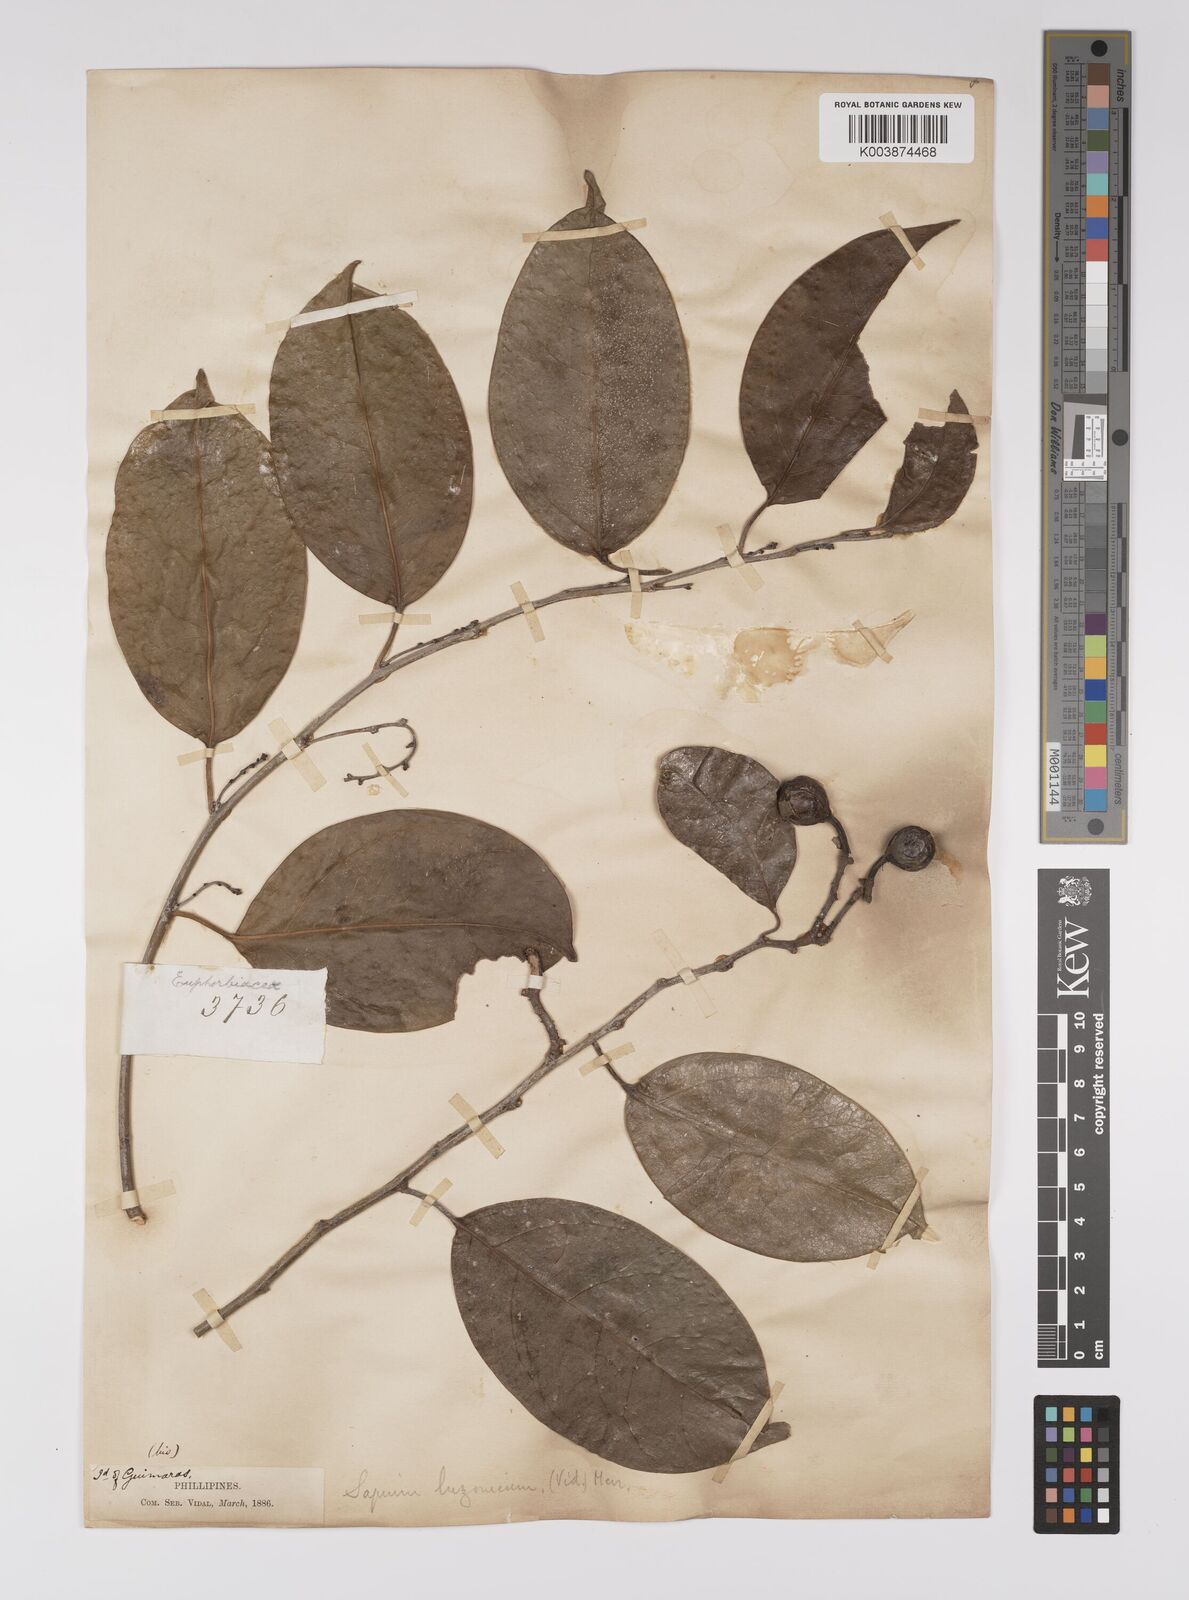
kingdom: Plantae
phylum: Tracheophyta
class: Magnoliopsida
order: Malpighiales
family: Euphorbiaceae
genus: Balakata
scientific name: Balakata luzonica
